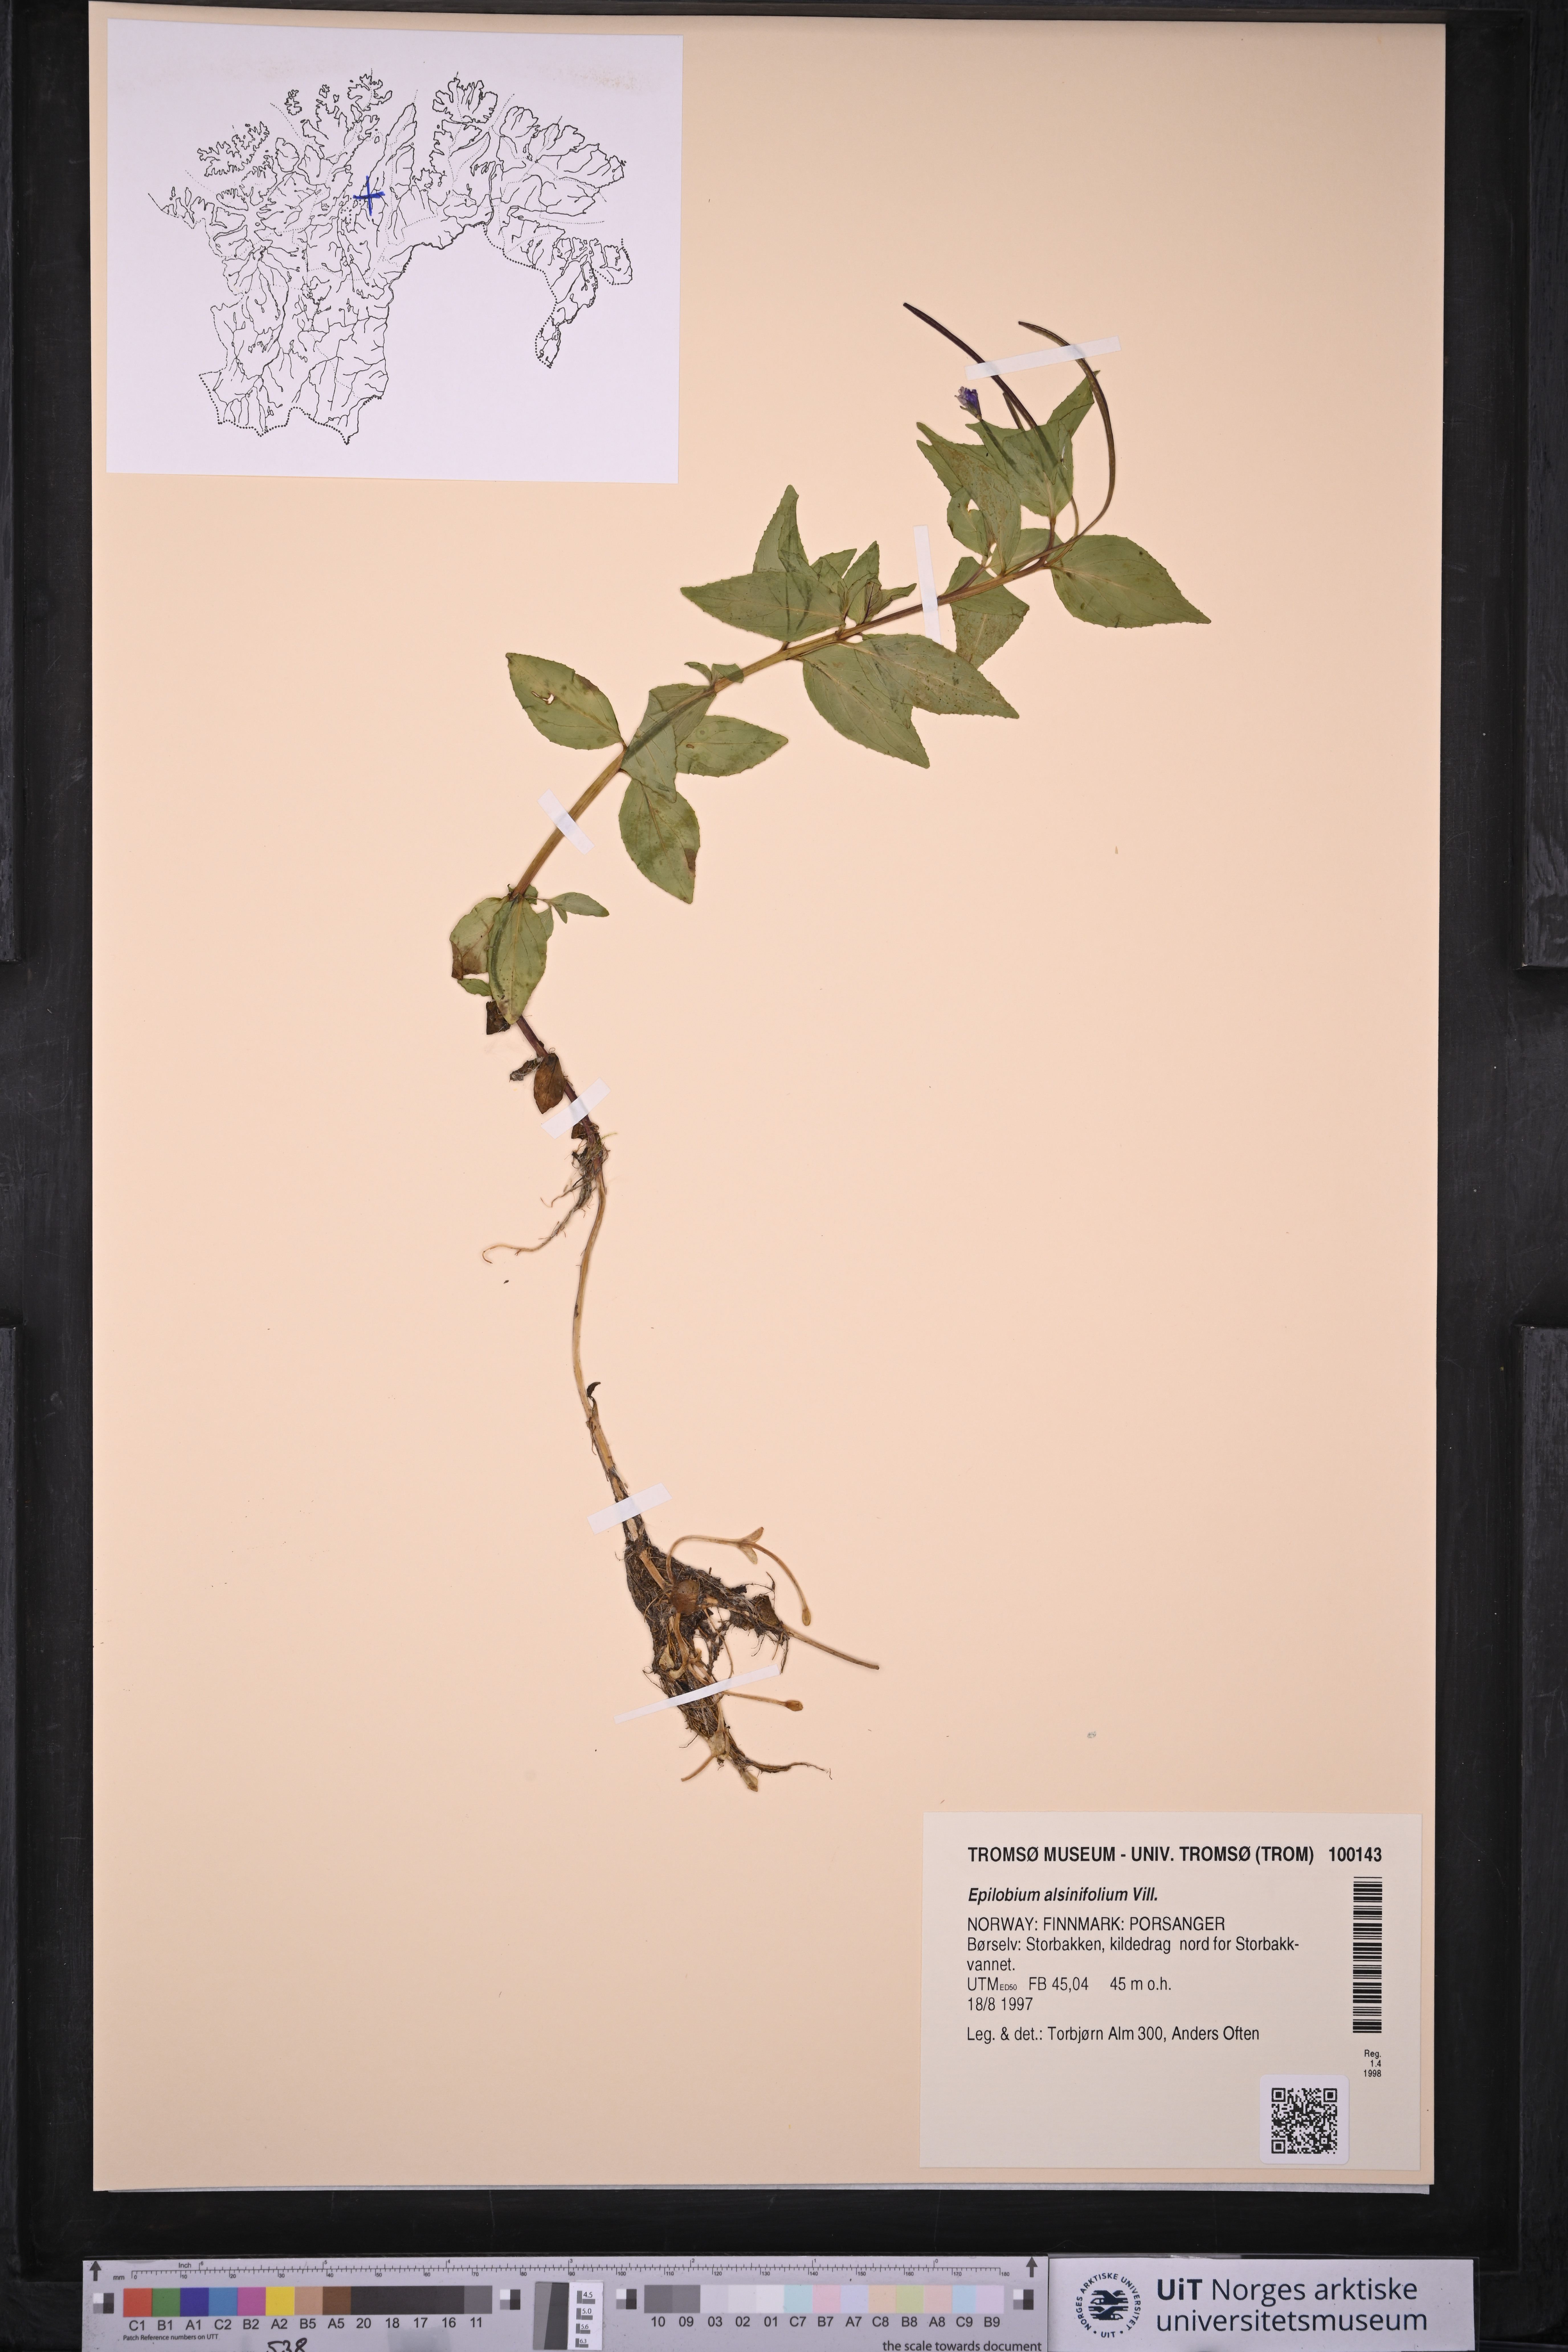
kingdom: Plantae
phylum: Tracheophyta
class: Magnoliopsida
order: Myrtales
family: Onagraceae
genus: Epilobium
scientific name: Epilobium alsinifolium
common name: Chickweed willowherb
